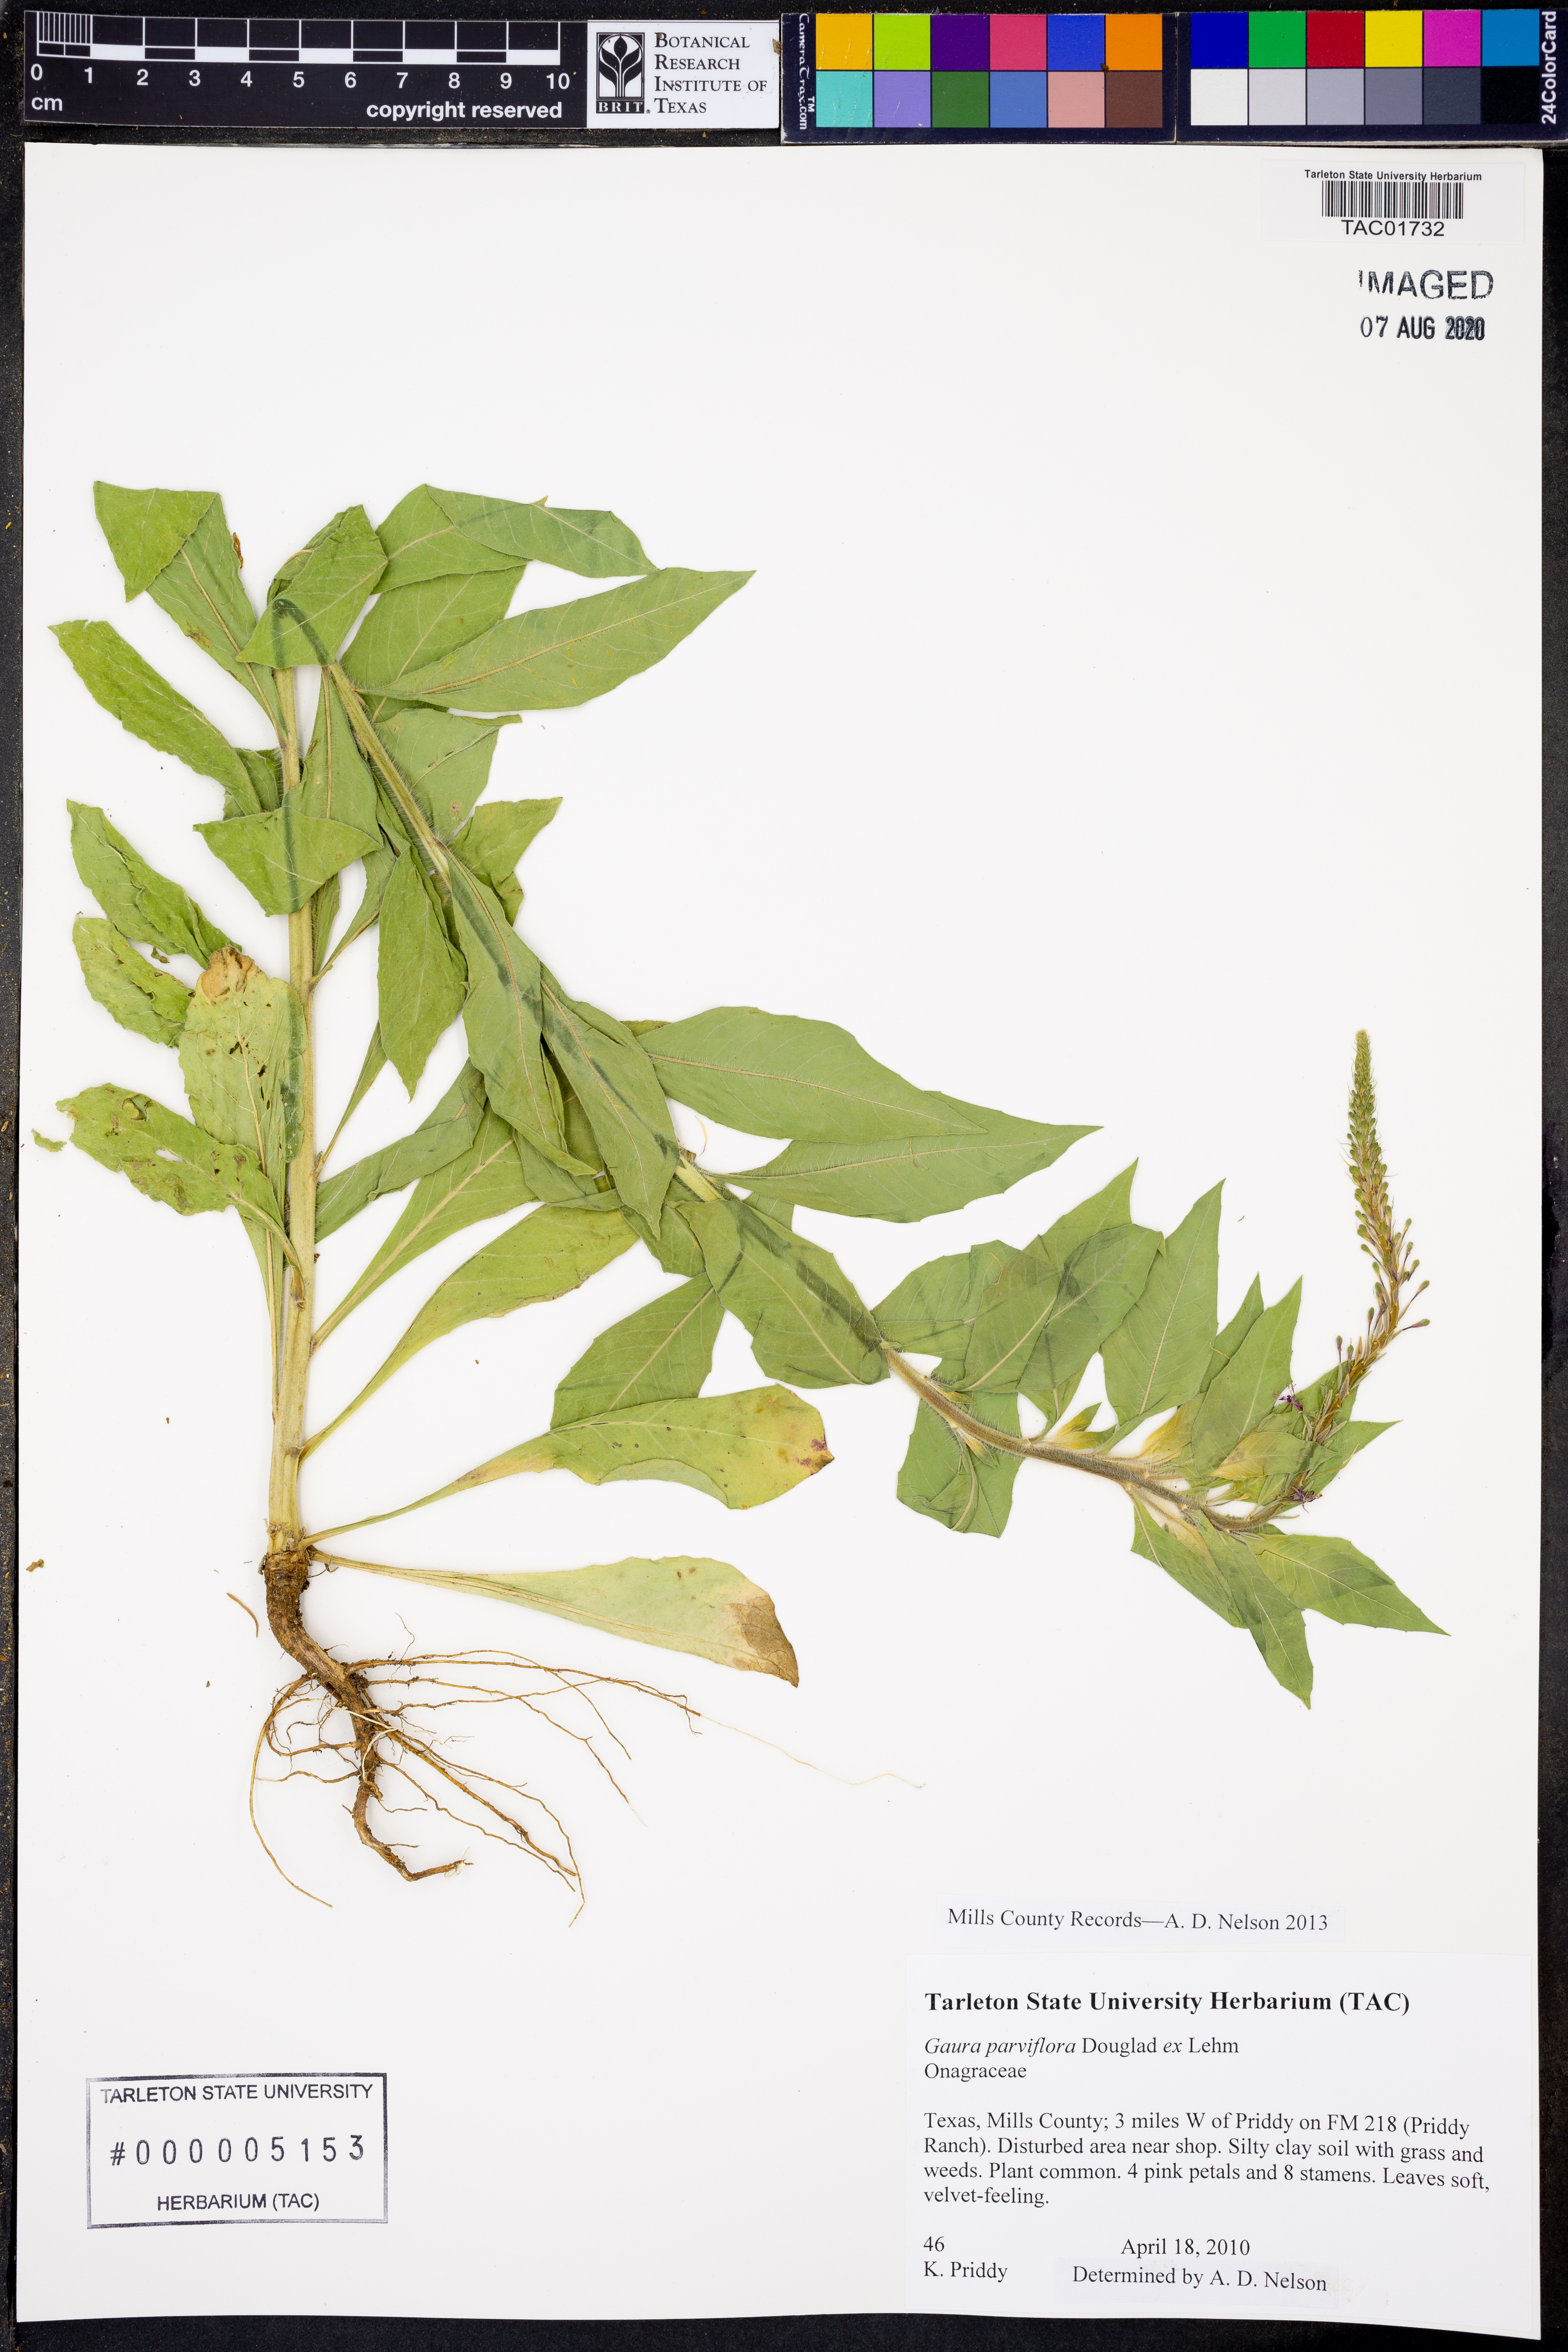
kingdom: Plantae
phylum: Tracheophyta
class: Magnoliopsida
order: Myrtales
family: Onagraceae
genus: Oenothera
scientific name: Oenothera curtiflora
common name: Velvetweed
